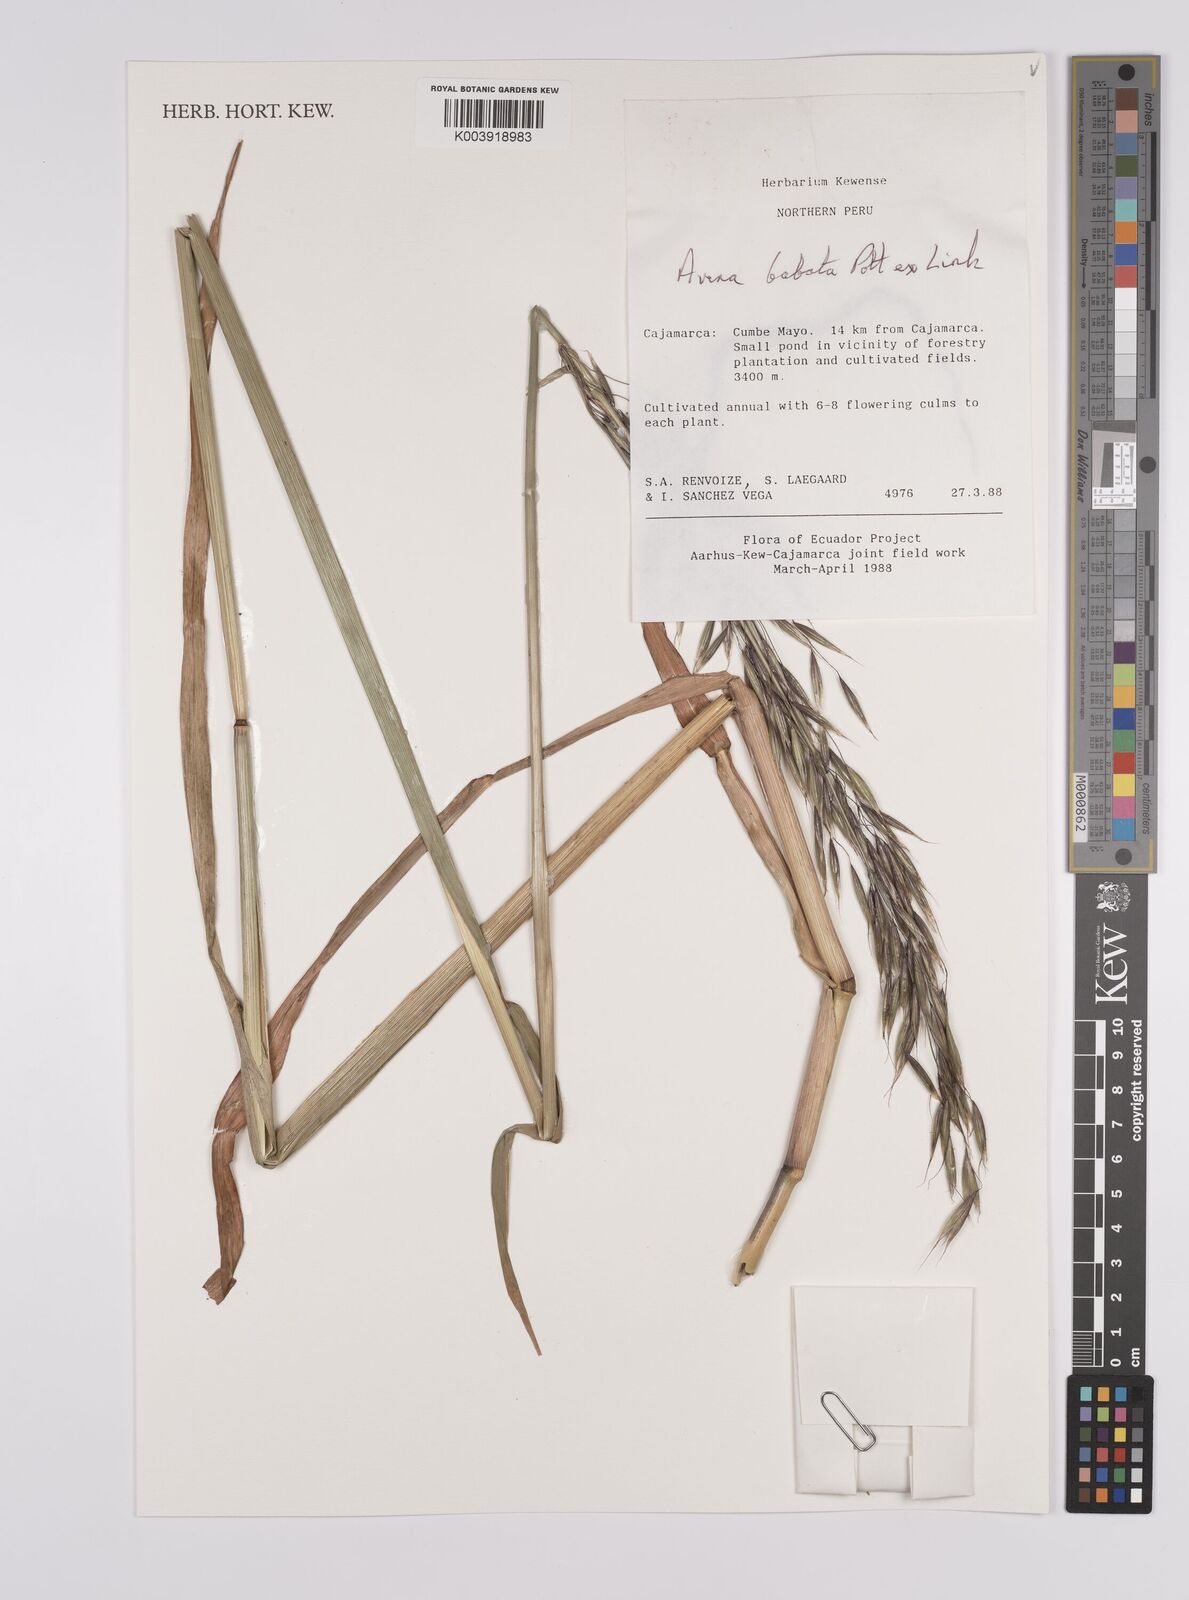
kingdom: Plantae
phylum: Tracheophyta
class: Liliopsida
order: Poales
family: Poaceae
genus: Avena
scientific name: Avena barbata
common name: Slender oat
